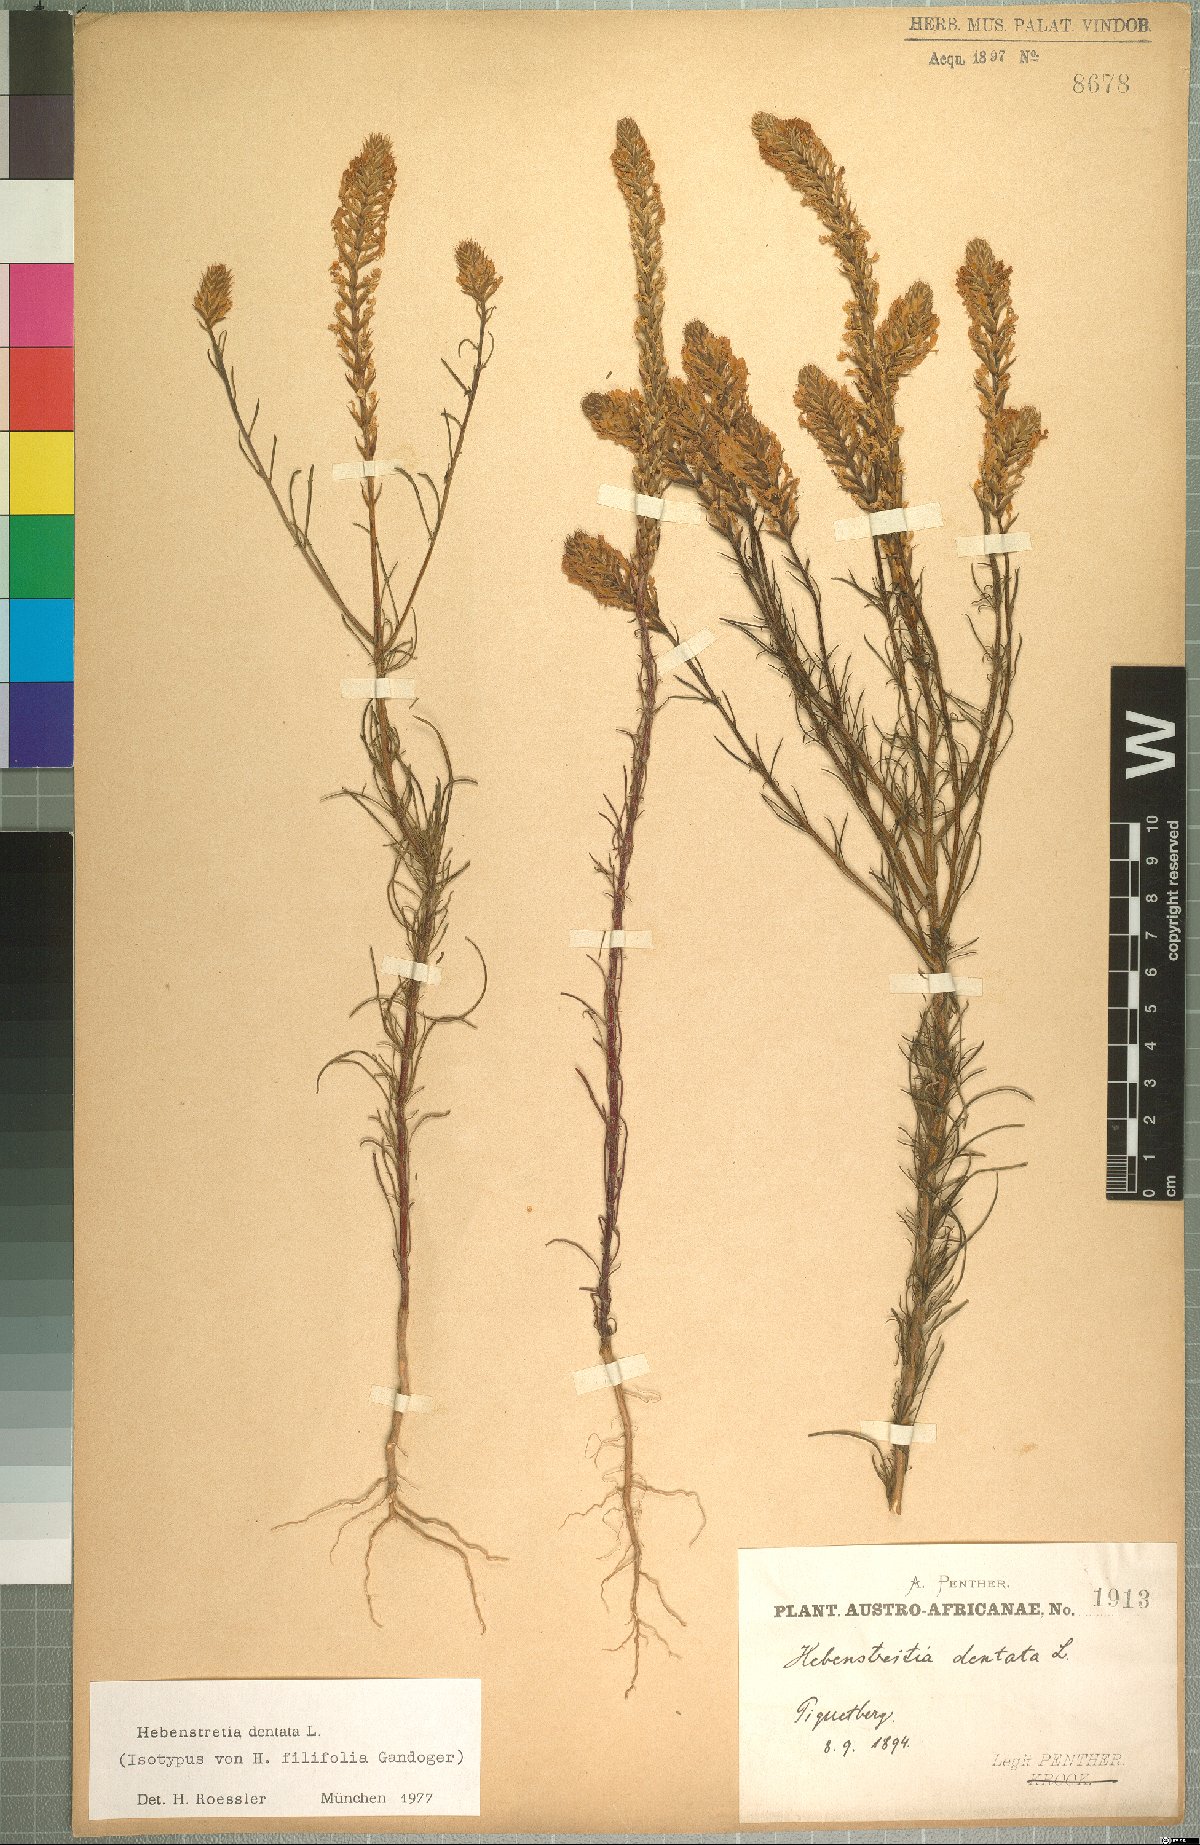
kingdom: Plantae
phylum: Tracheophyta
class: Magnoliopsida
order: Lamiales
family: Scrophulariaceae
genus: Hebenstretia
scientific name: Hebenstretia dentata
